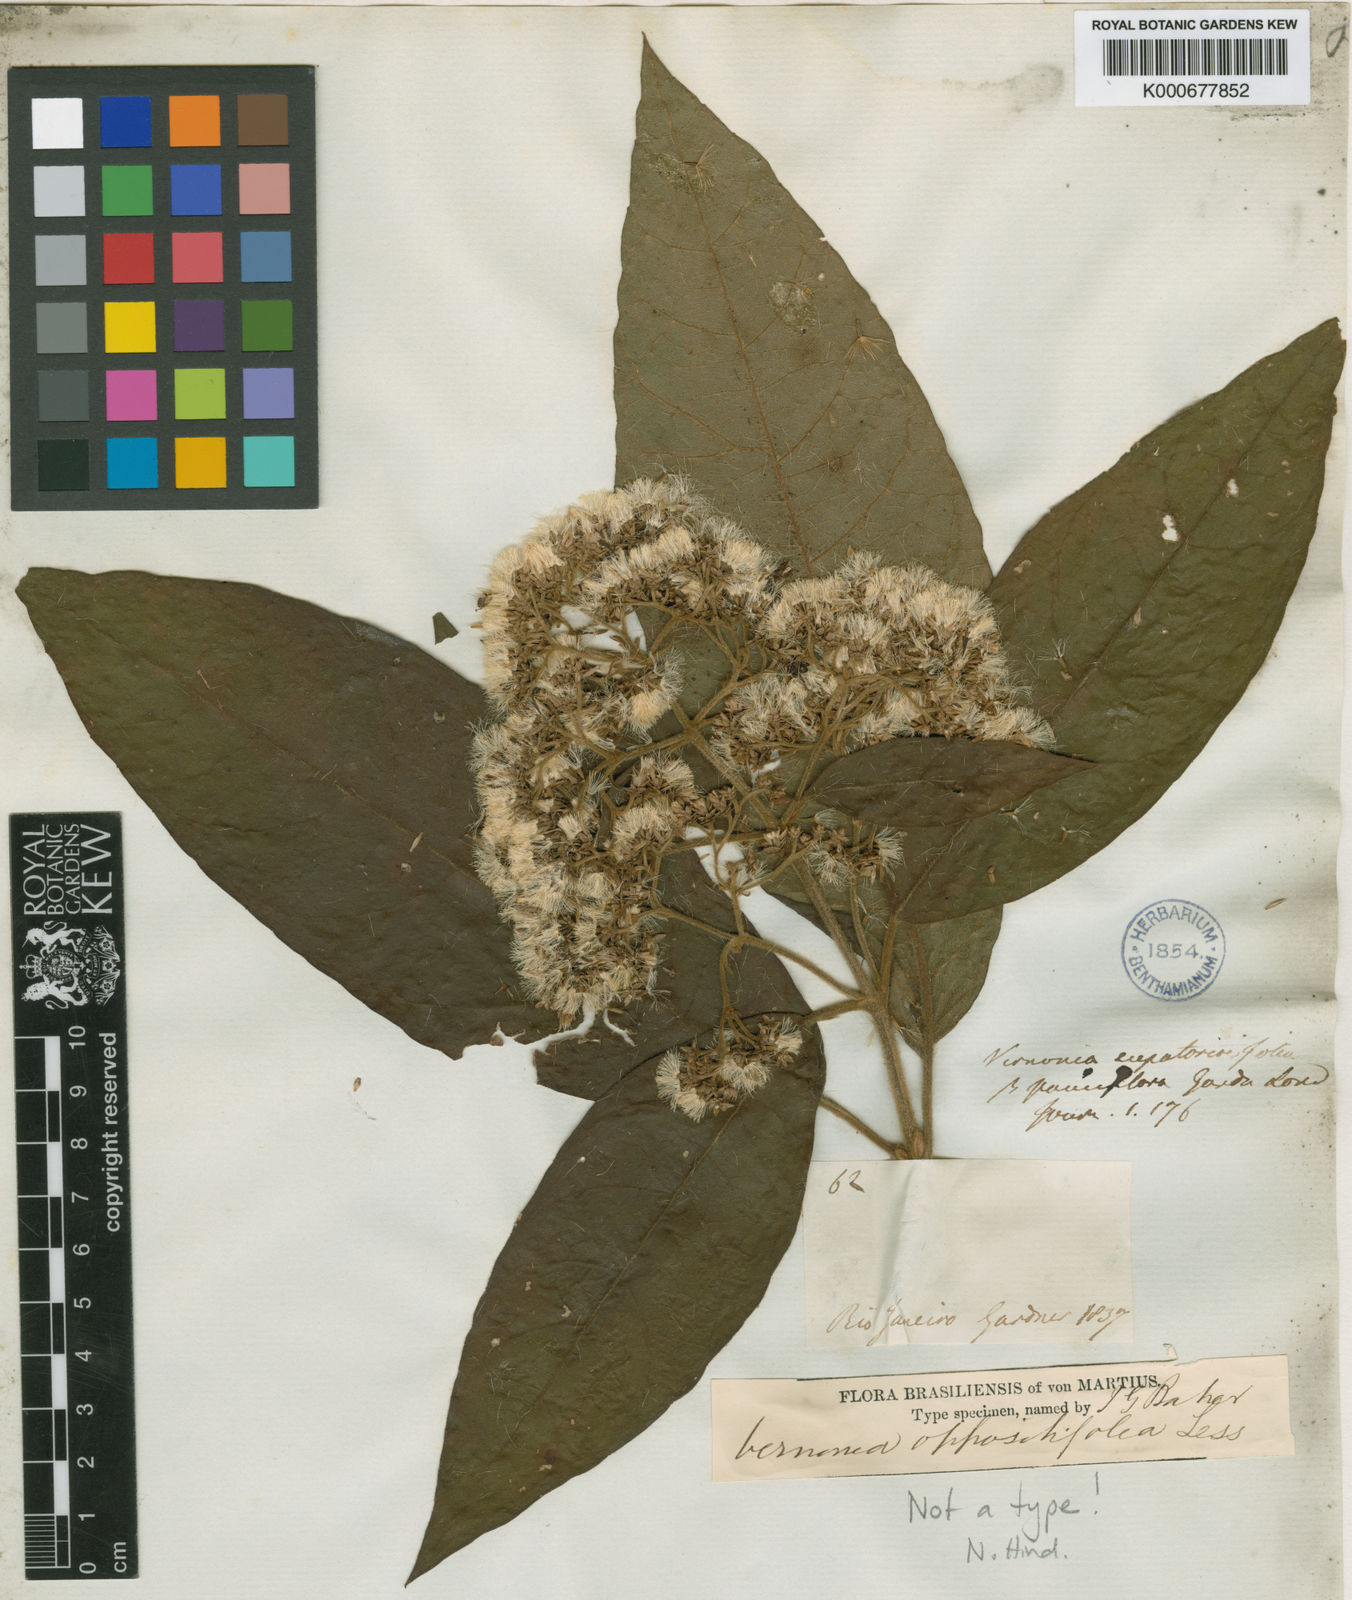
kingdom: Plantae
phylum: Tracheophyta
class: Magnoliopsida
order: Asterales
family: Asteraceae
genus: Critoniopsis
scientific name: Critoniopsis stellata
